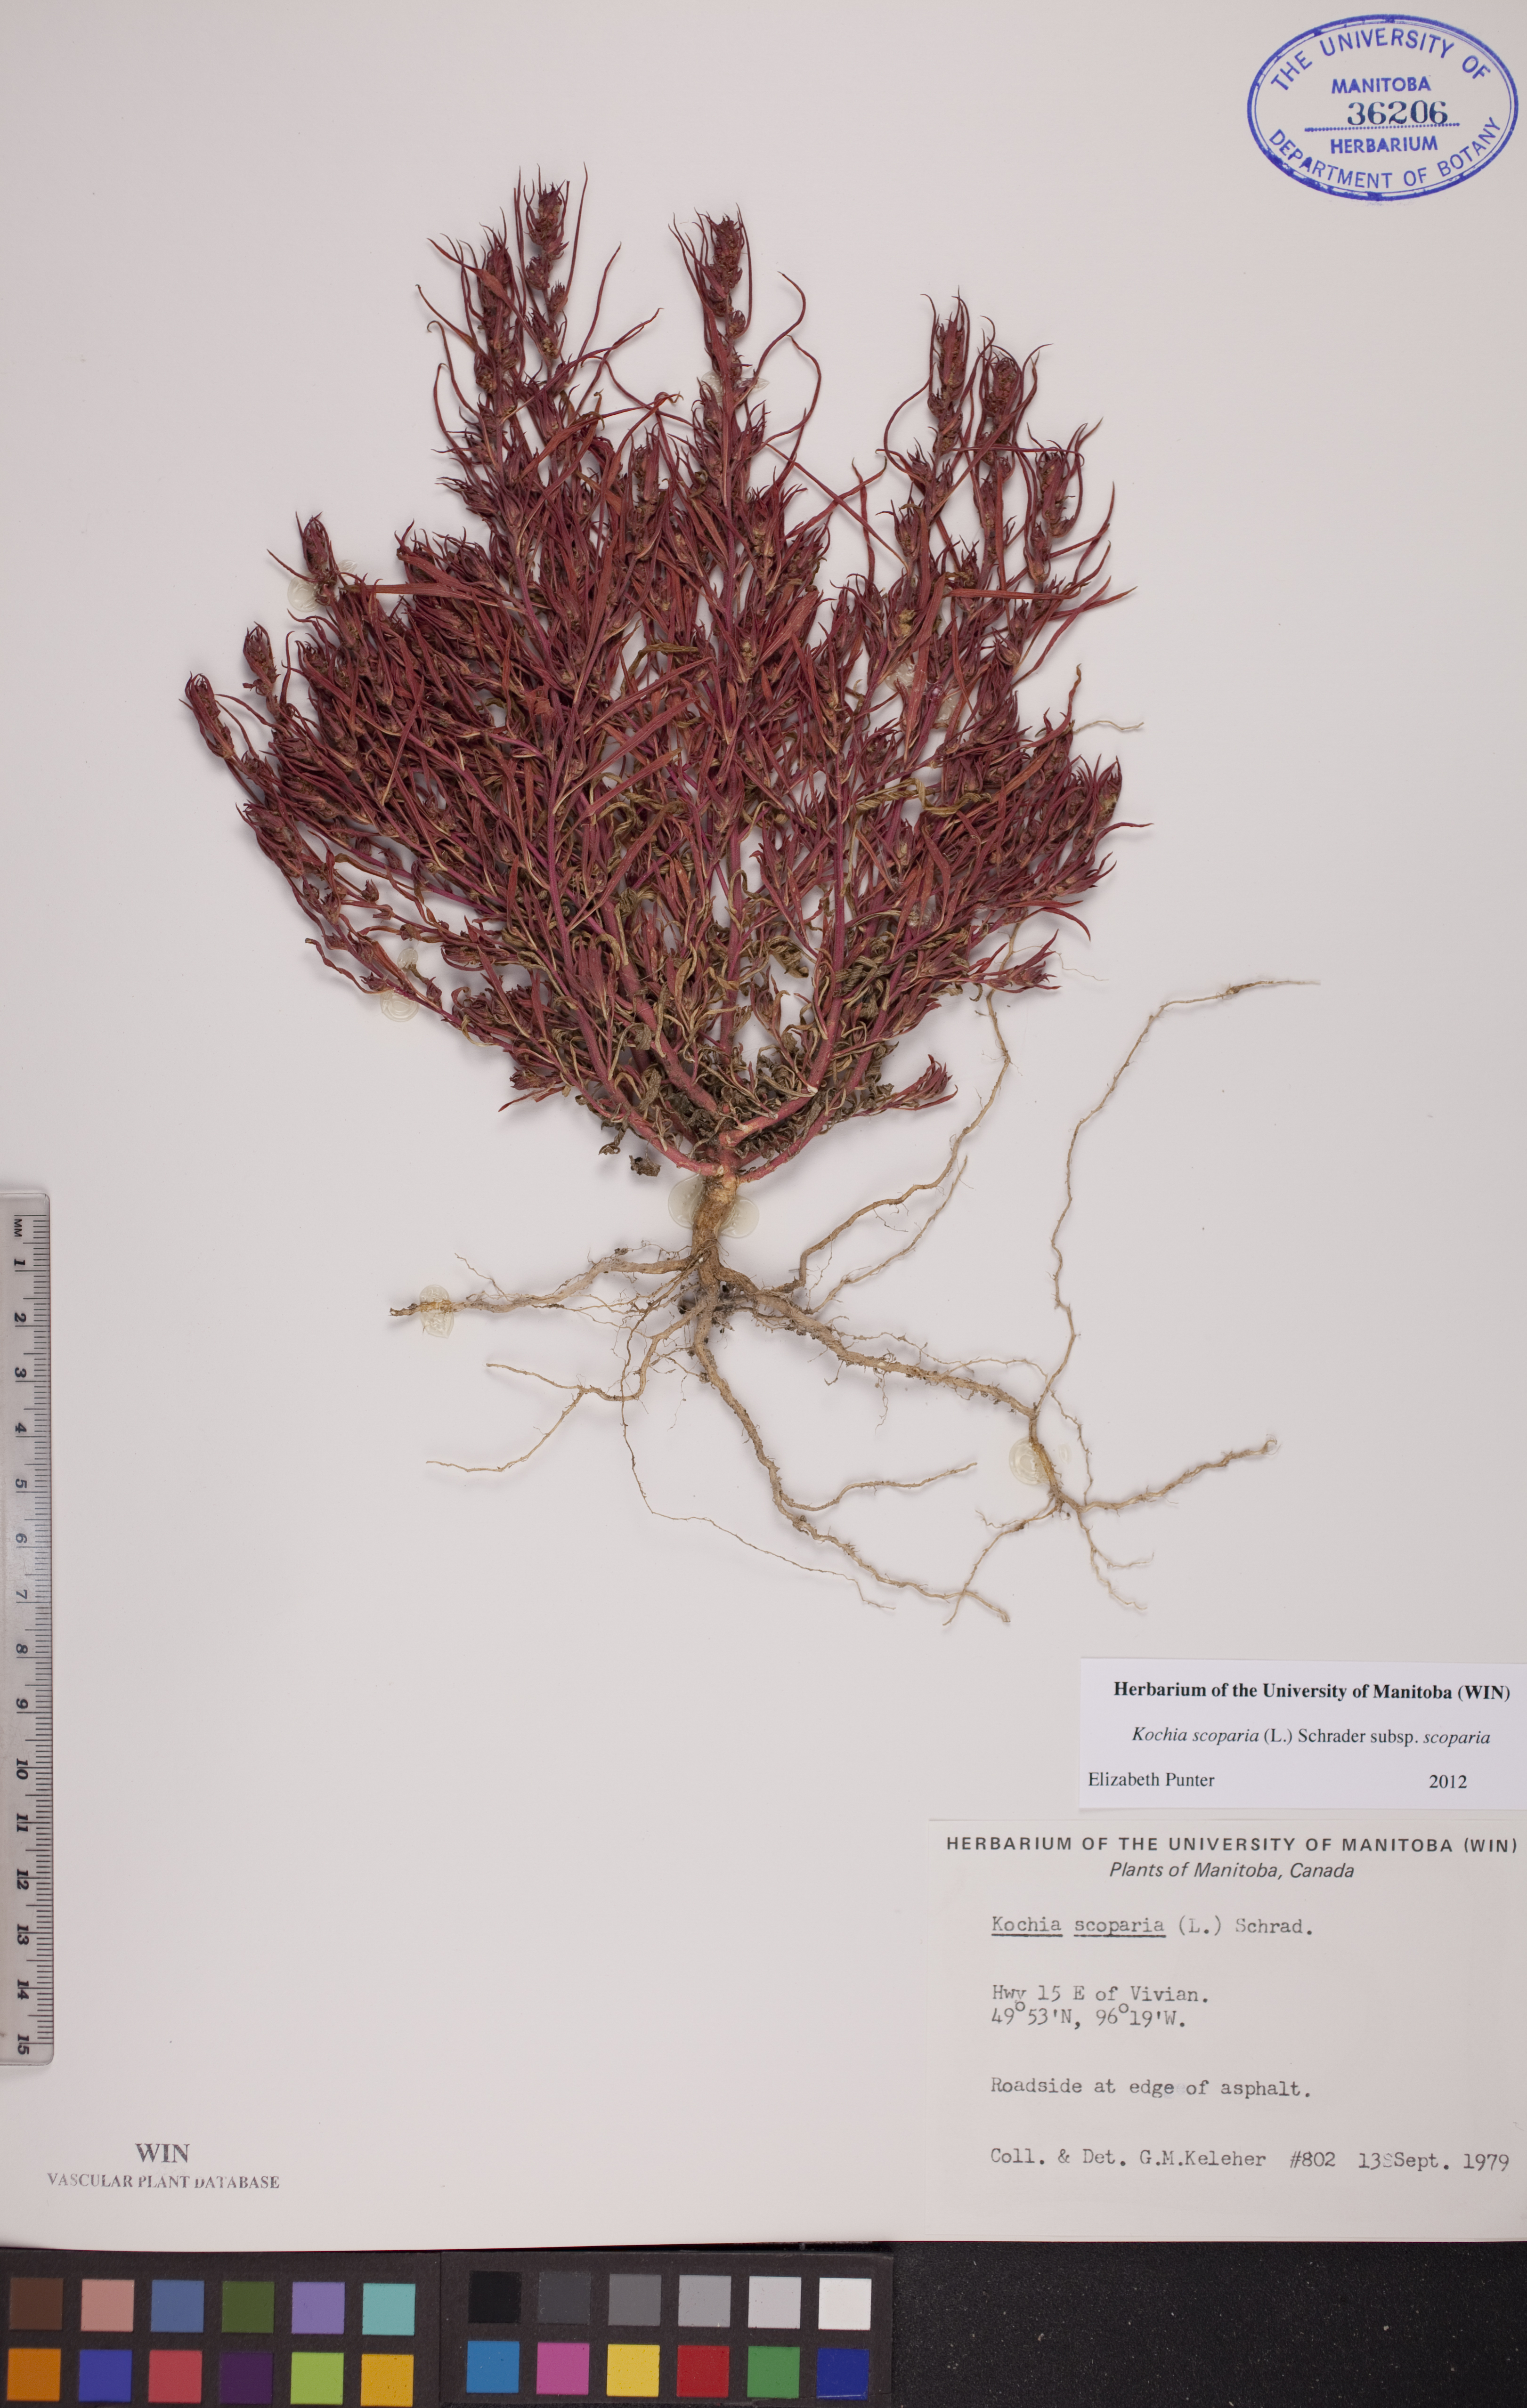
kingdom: Plantae
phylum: Tracheophyta
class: Magnoliopsida
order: Caryophyllales
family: Amaranthaceae
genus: Bassia
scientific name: Bassia scoparia
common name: Belvedere
